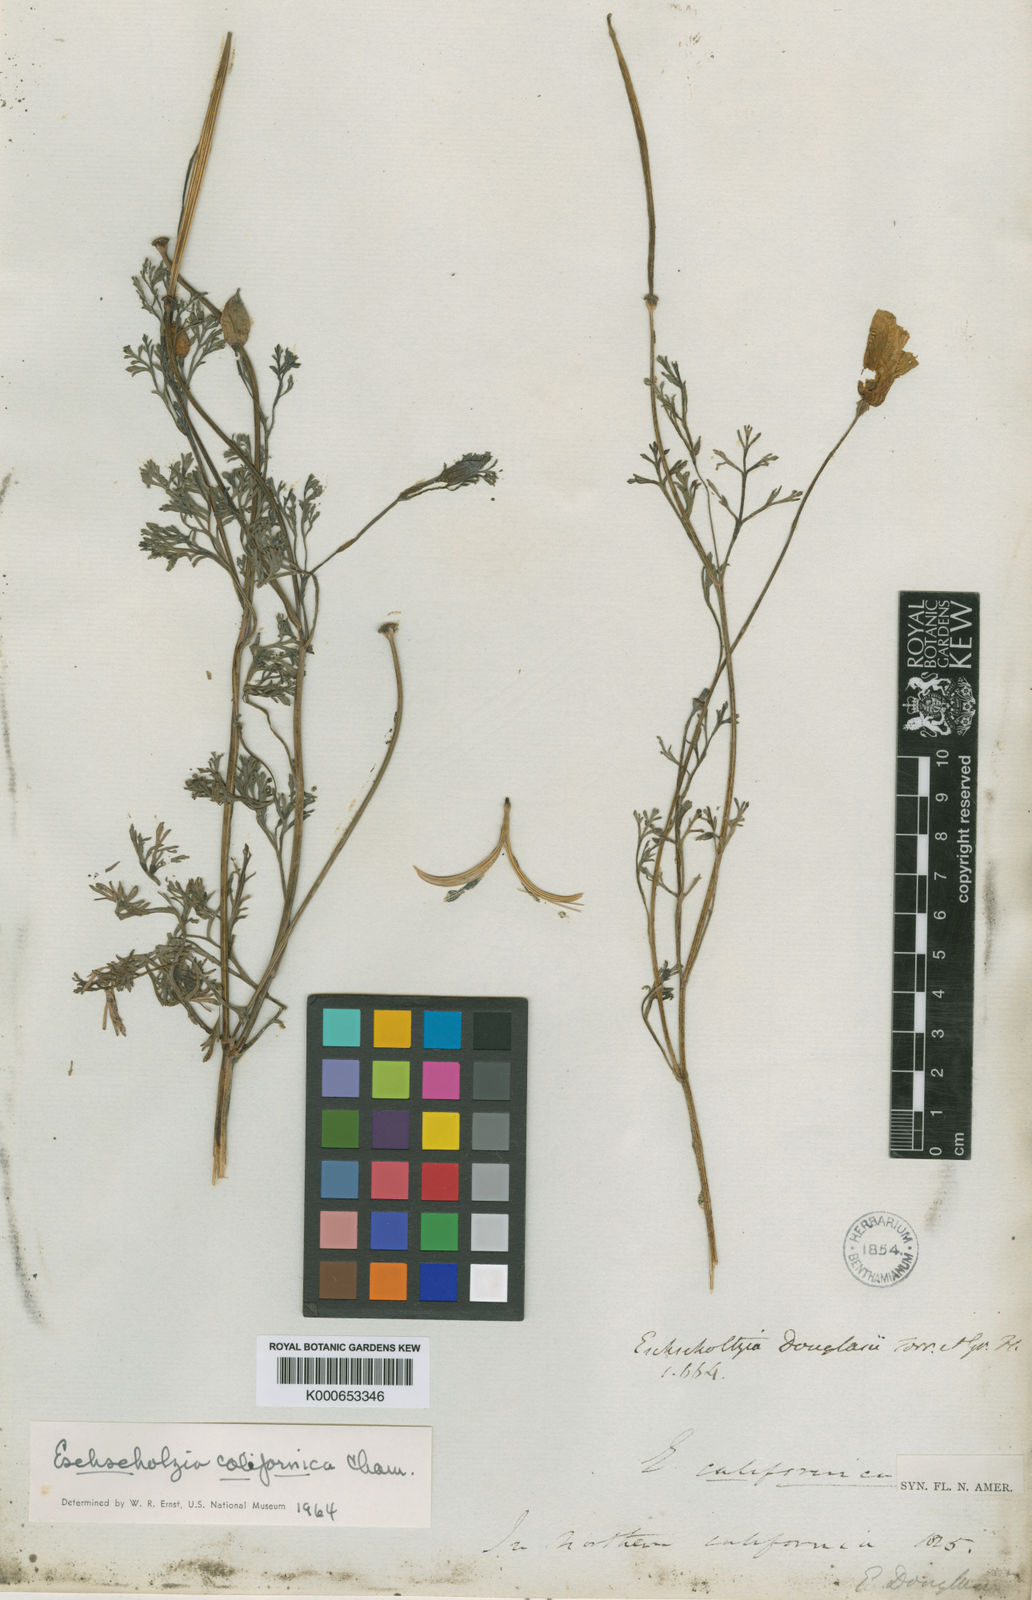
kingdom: Plantae
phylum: Tracheophyta
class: Magnoliopsida
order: Ranunculales
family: Papaveraceae
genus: Eschscholzia
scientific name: Eschscholzia californica
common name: California poppy
